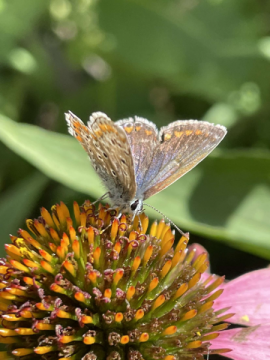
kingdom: Animalia
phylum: Arthropoda
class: Insecta
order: Lepidoptera
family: Lycaenidae
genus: Polyommatus
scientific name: Polyommatus icarus
